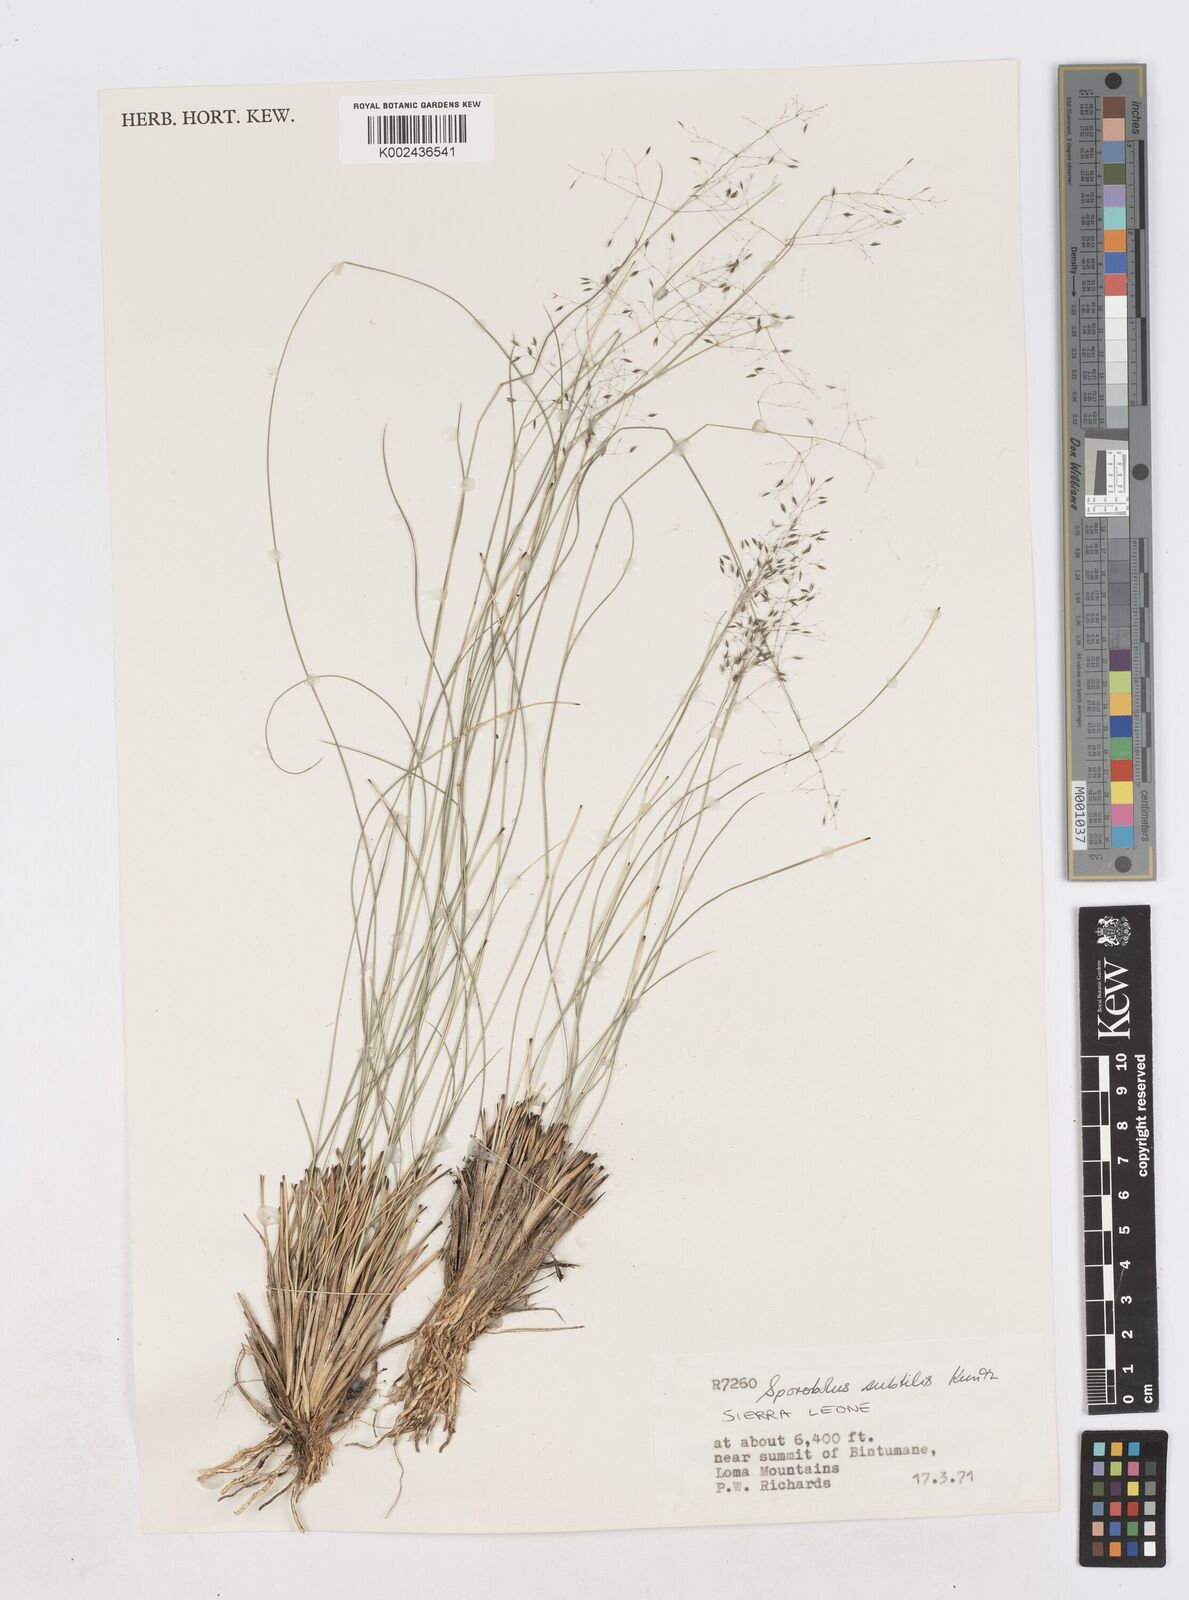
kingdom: Plantae
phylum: Tracheophyta
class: Liliopsida
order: Poales
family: Poaceae
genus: Sporobolus
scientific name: Sporobolus subtilis
